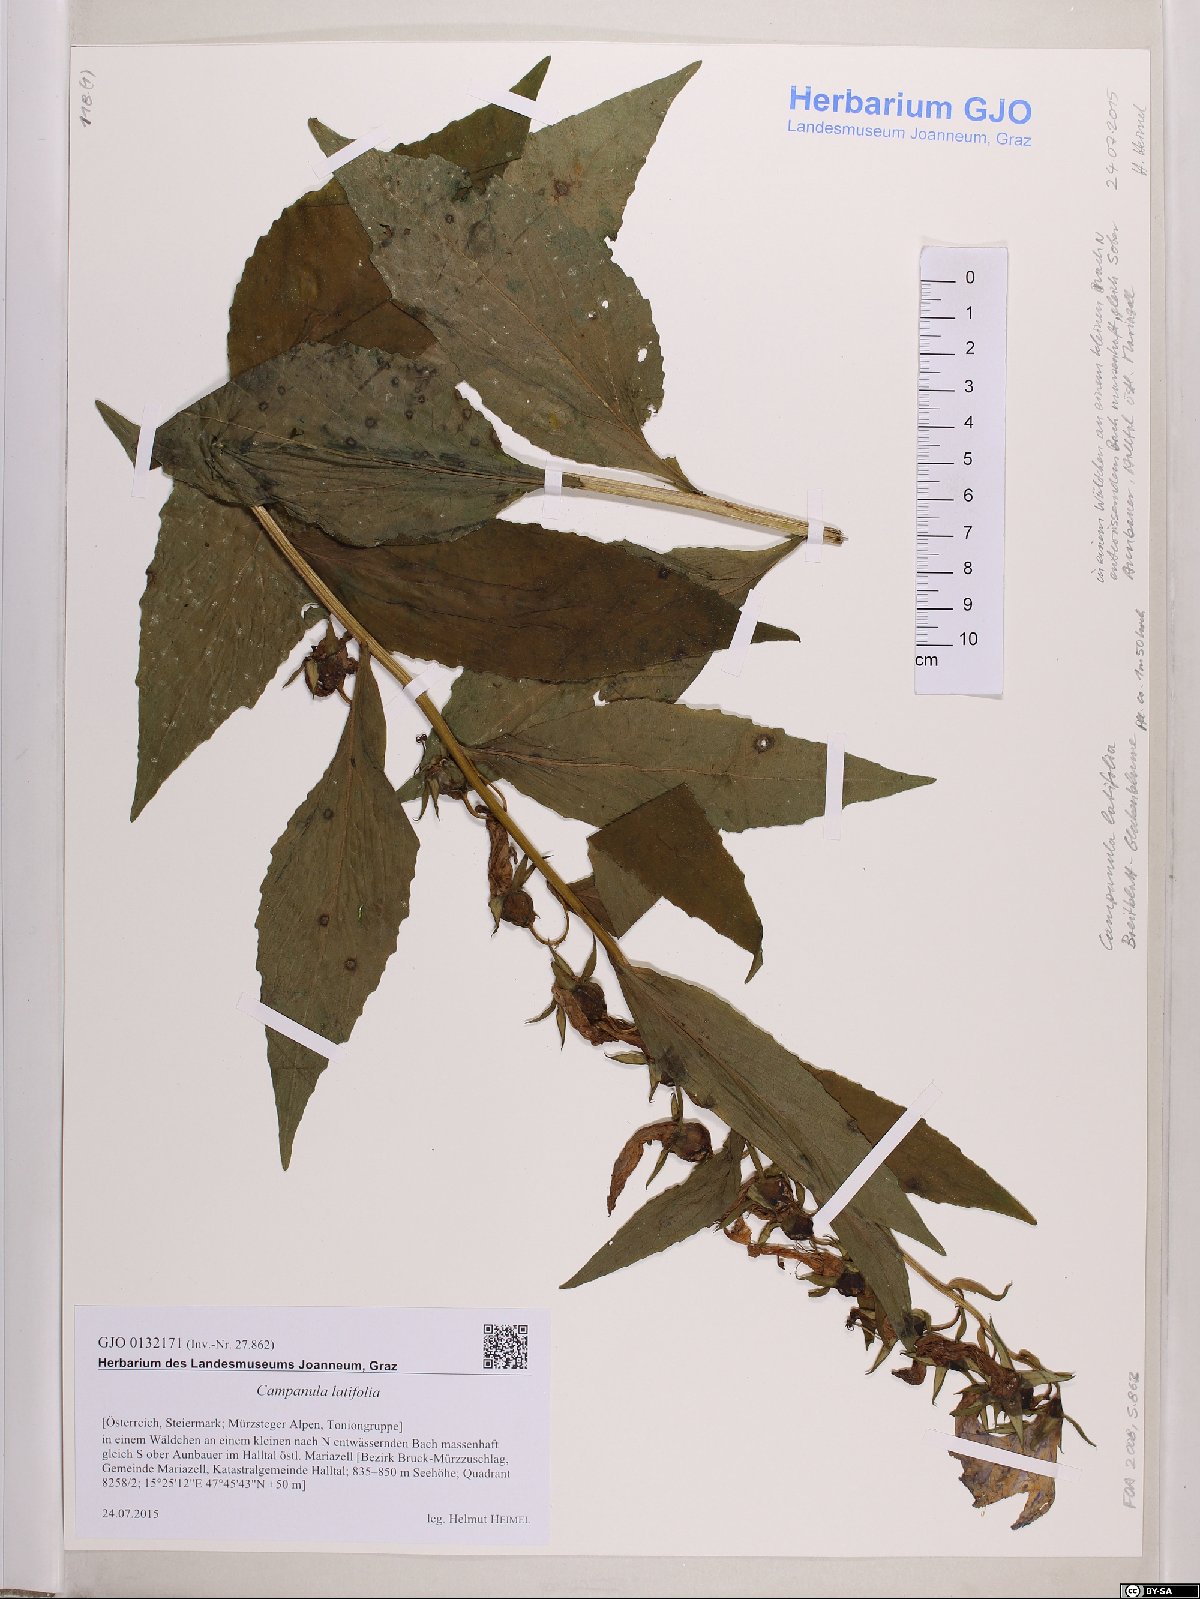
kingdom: Plantae
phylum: Tracheophyta
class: Magnoliopsida
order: Asterales
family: Campanulaceae
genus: Campanula
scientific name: Campanula latifolia
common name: Giant bellflower
